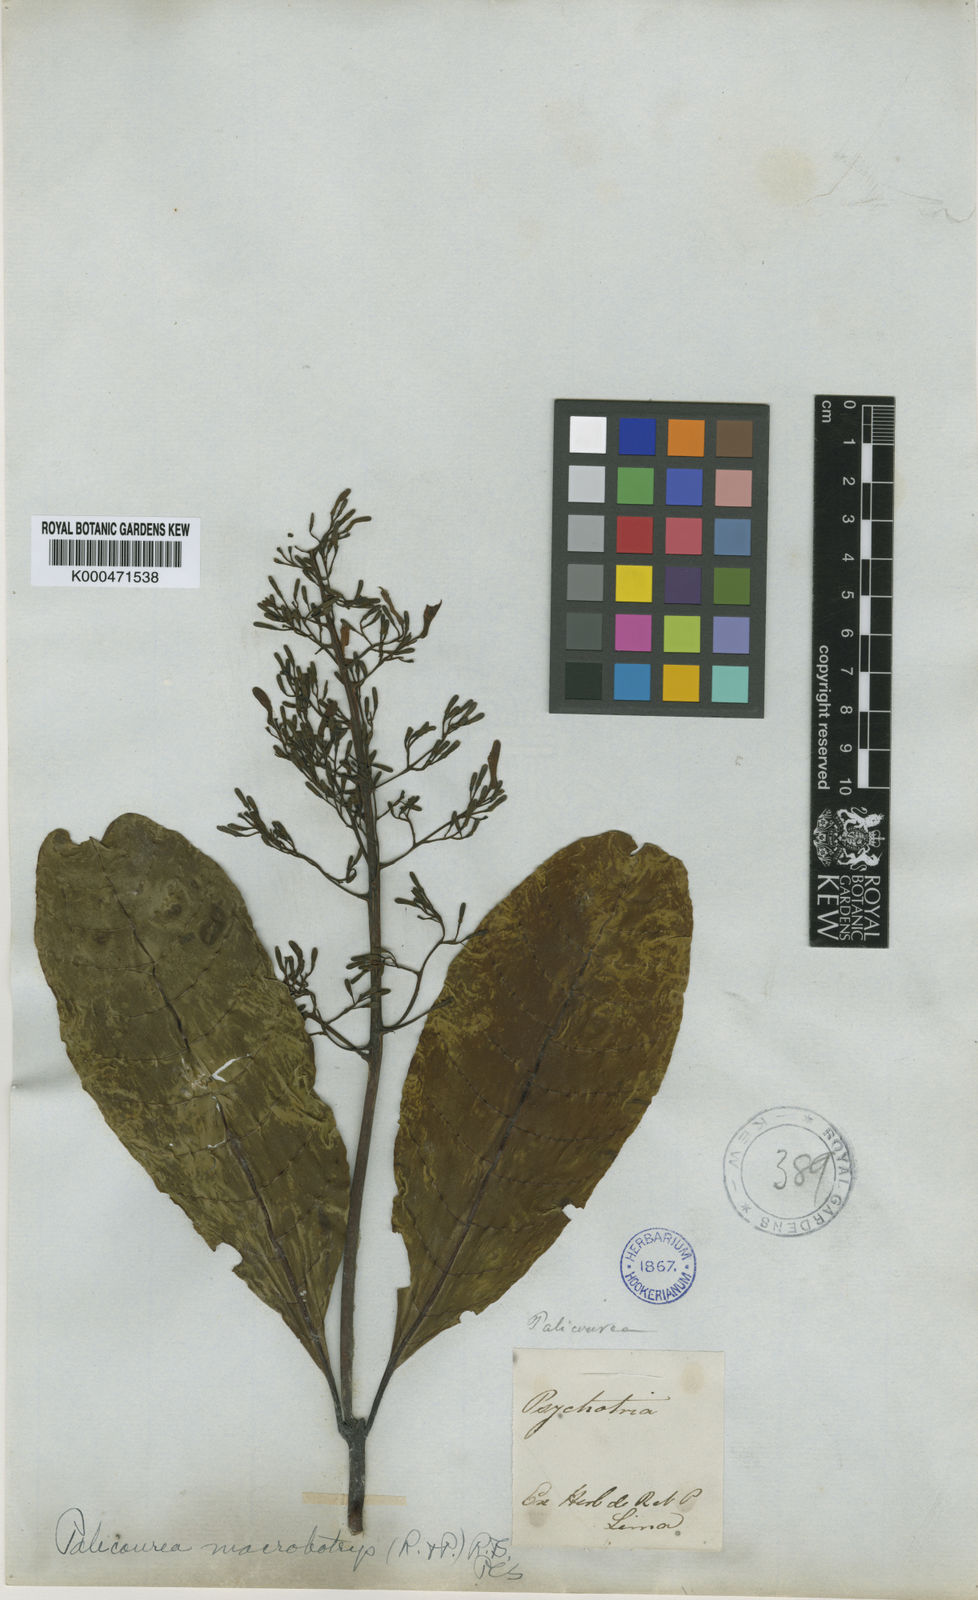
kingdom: Plantae
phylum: Tracheophyta
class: Magnoliopsida
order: Gentianales
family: Rubiaceae
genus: Palicourea
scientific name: Palicourea macrobotrys
